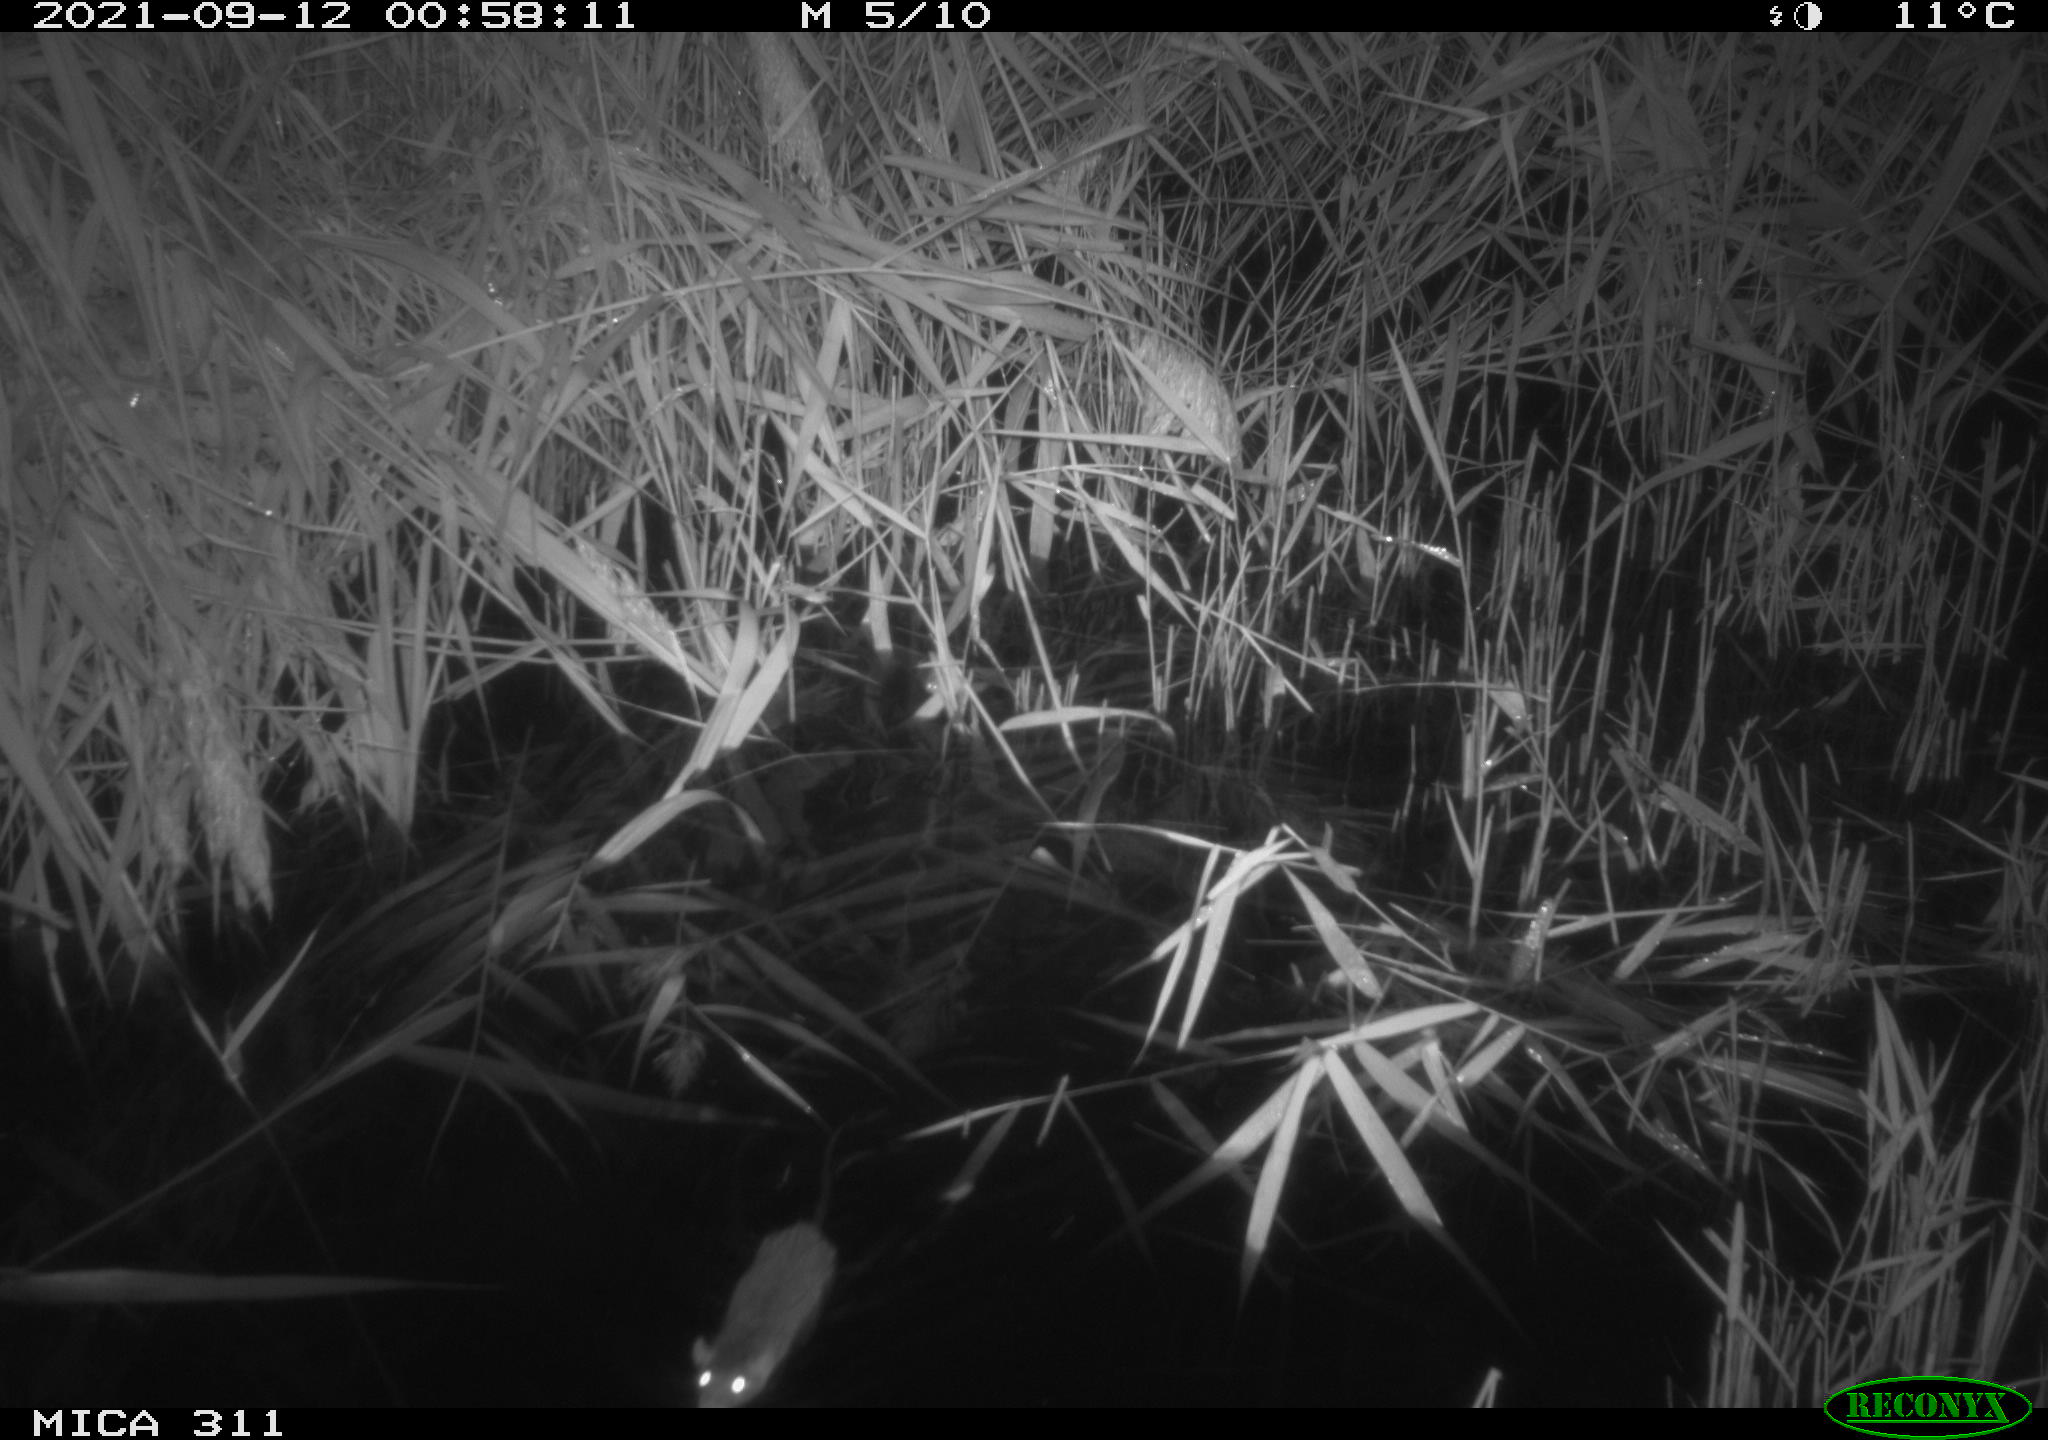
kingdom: Animalia
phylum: Chordata
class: Mammalia
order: Rodentia
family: Muridae
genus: Rattus
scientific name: Rattus norvegicus
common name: Brown rat
